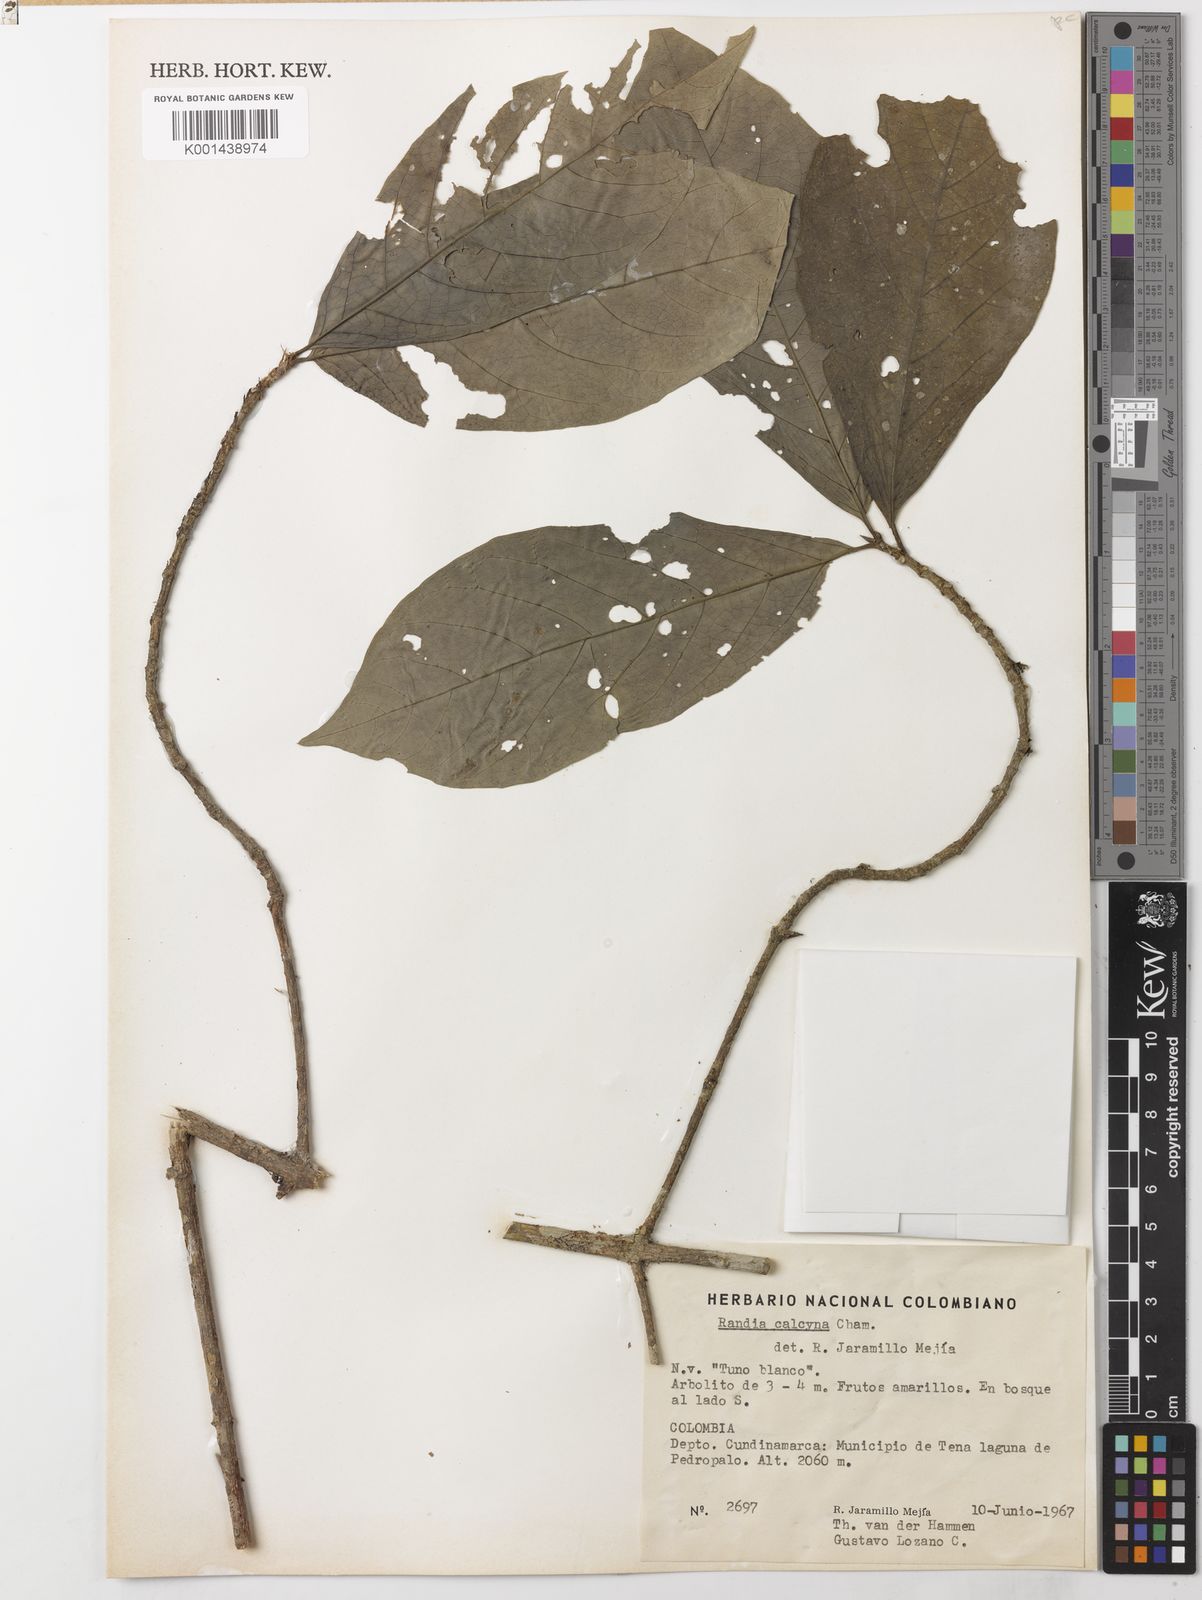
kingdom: Plantae
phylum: Tracheophyta
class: Magnoliopsida
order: Gentianales
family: Rubiaceae
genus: Randia
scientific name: Randia calycina
